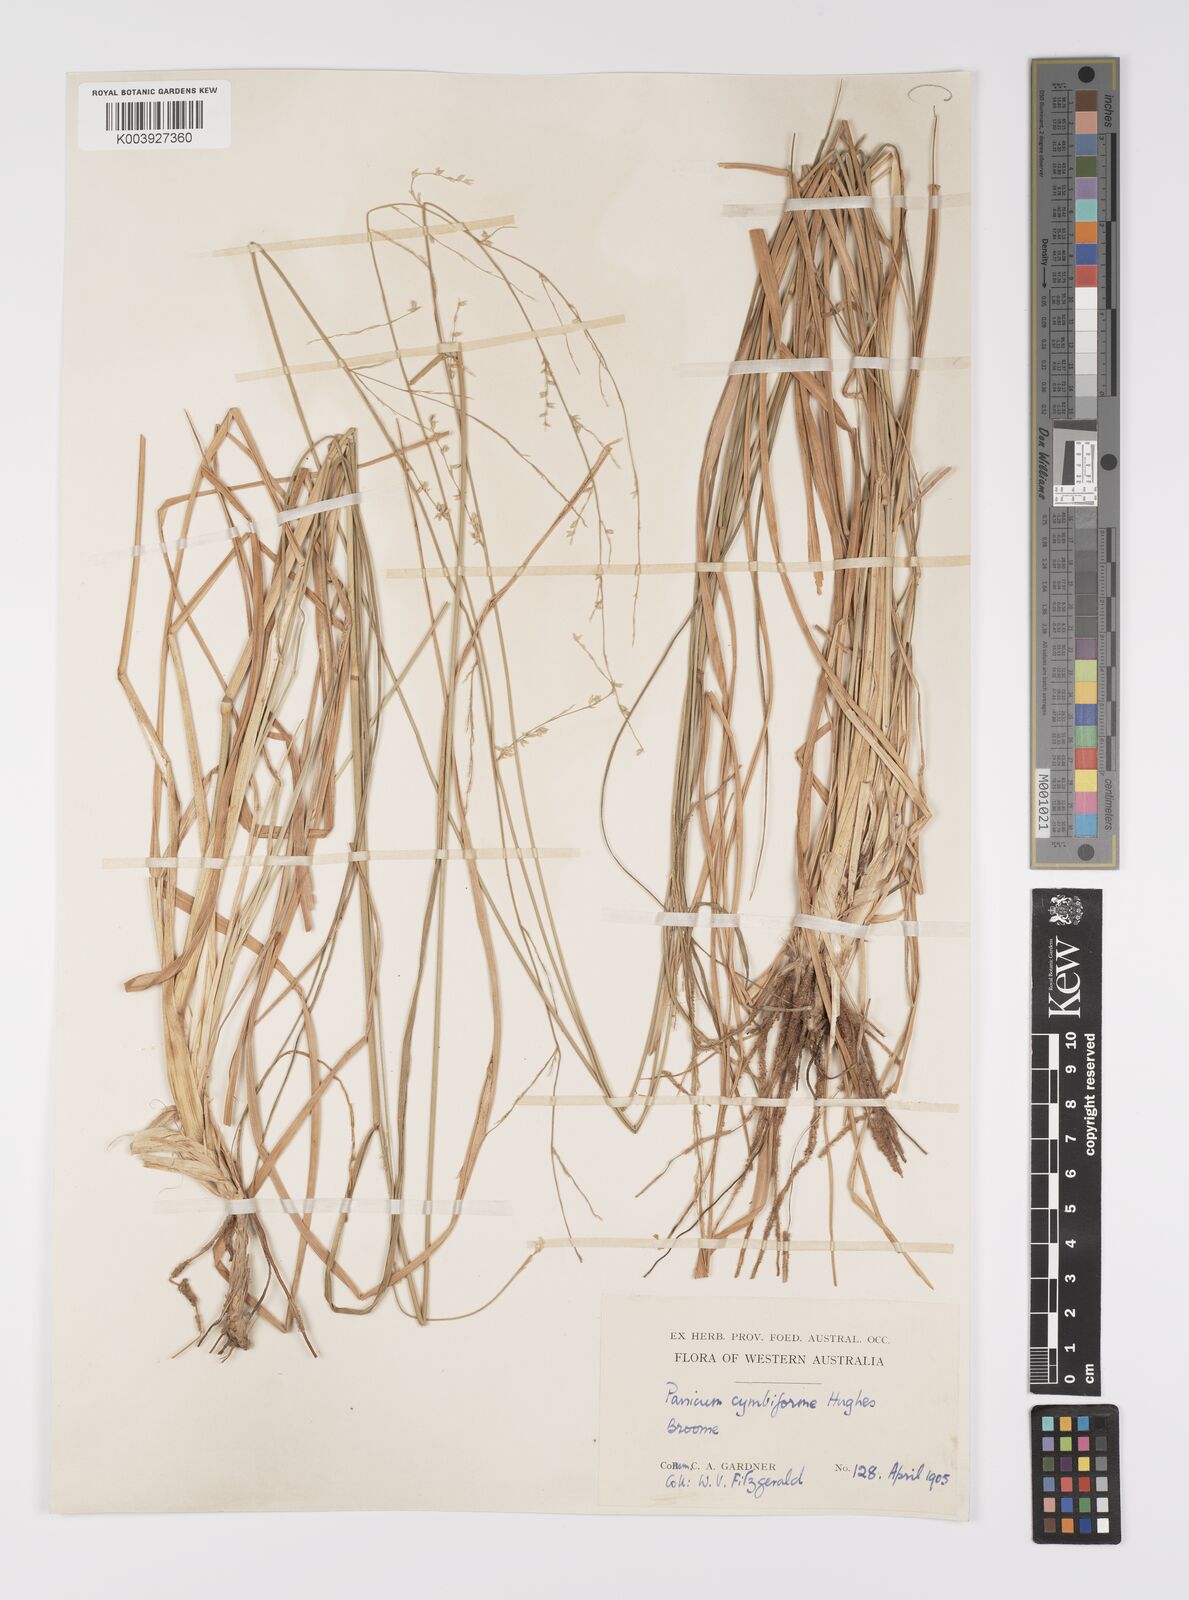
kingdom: Plantae
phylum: Tracheophyta
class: Liliopsida
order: Poales
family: Poaceae
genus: Whiteochloa
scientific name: Whiteochloa cymbiformis
